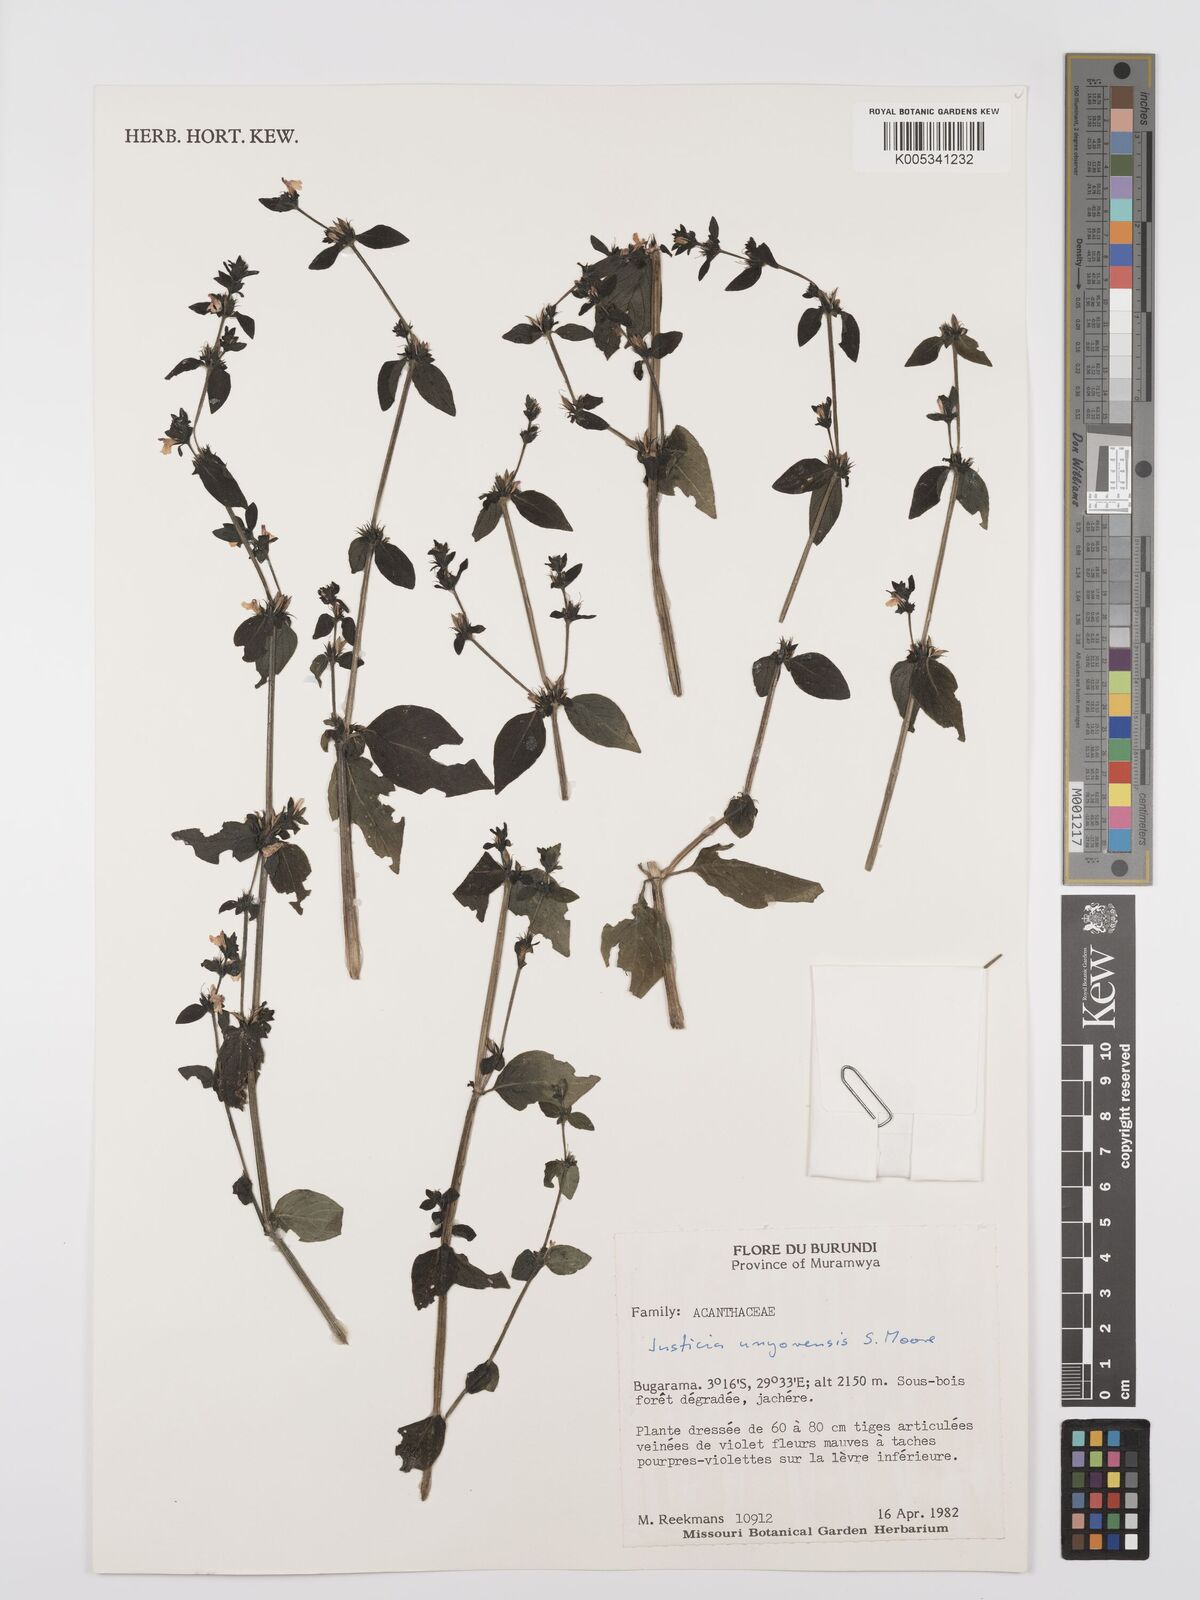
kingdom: Plantae
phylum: Tracheophyta
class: Magnoliopsida
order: Lamiales
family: Acanthaceae
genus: Justicia
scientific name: Justicia unyorensis
